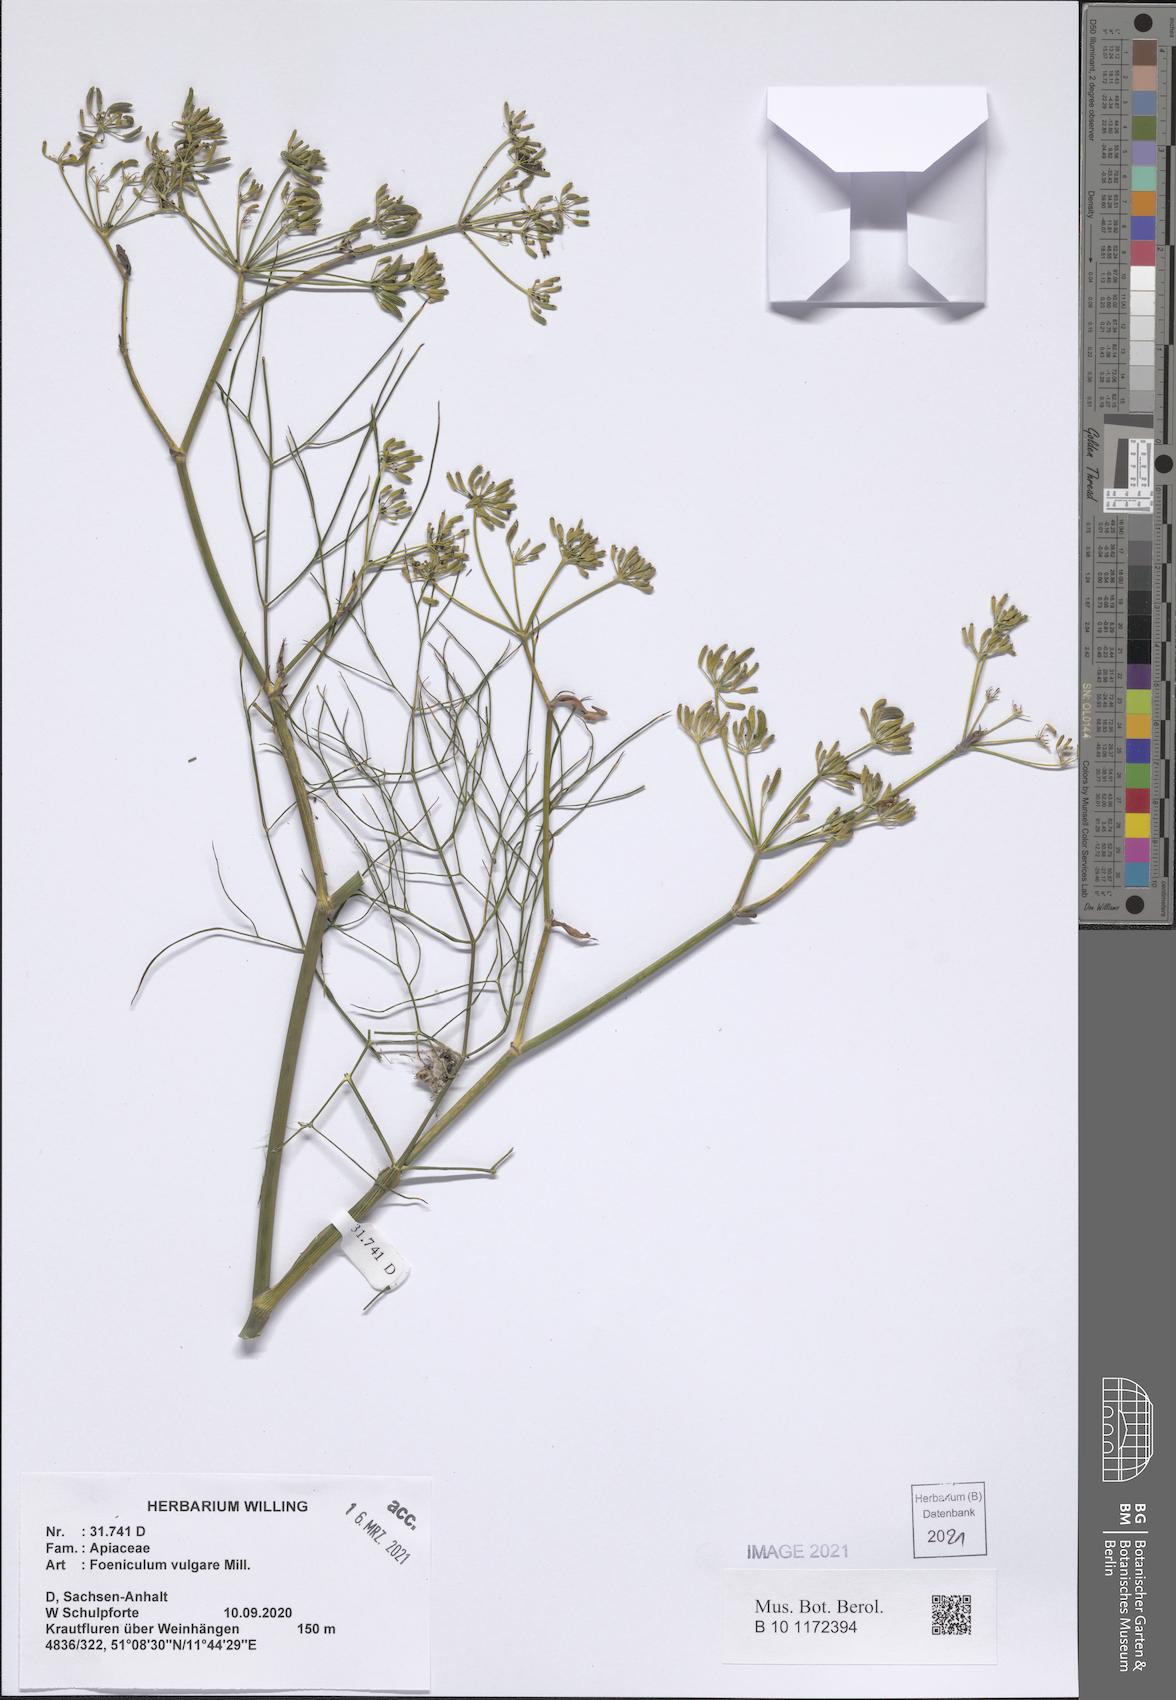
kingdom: Plantae
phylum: Tracheophyta
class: Magnoliopsida
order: Apiales
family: Apiaceae
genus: Foeniculum
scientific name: Foeniculum vulgare
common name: Fennel
